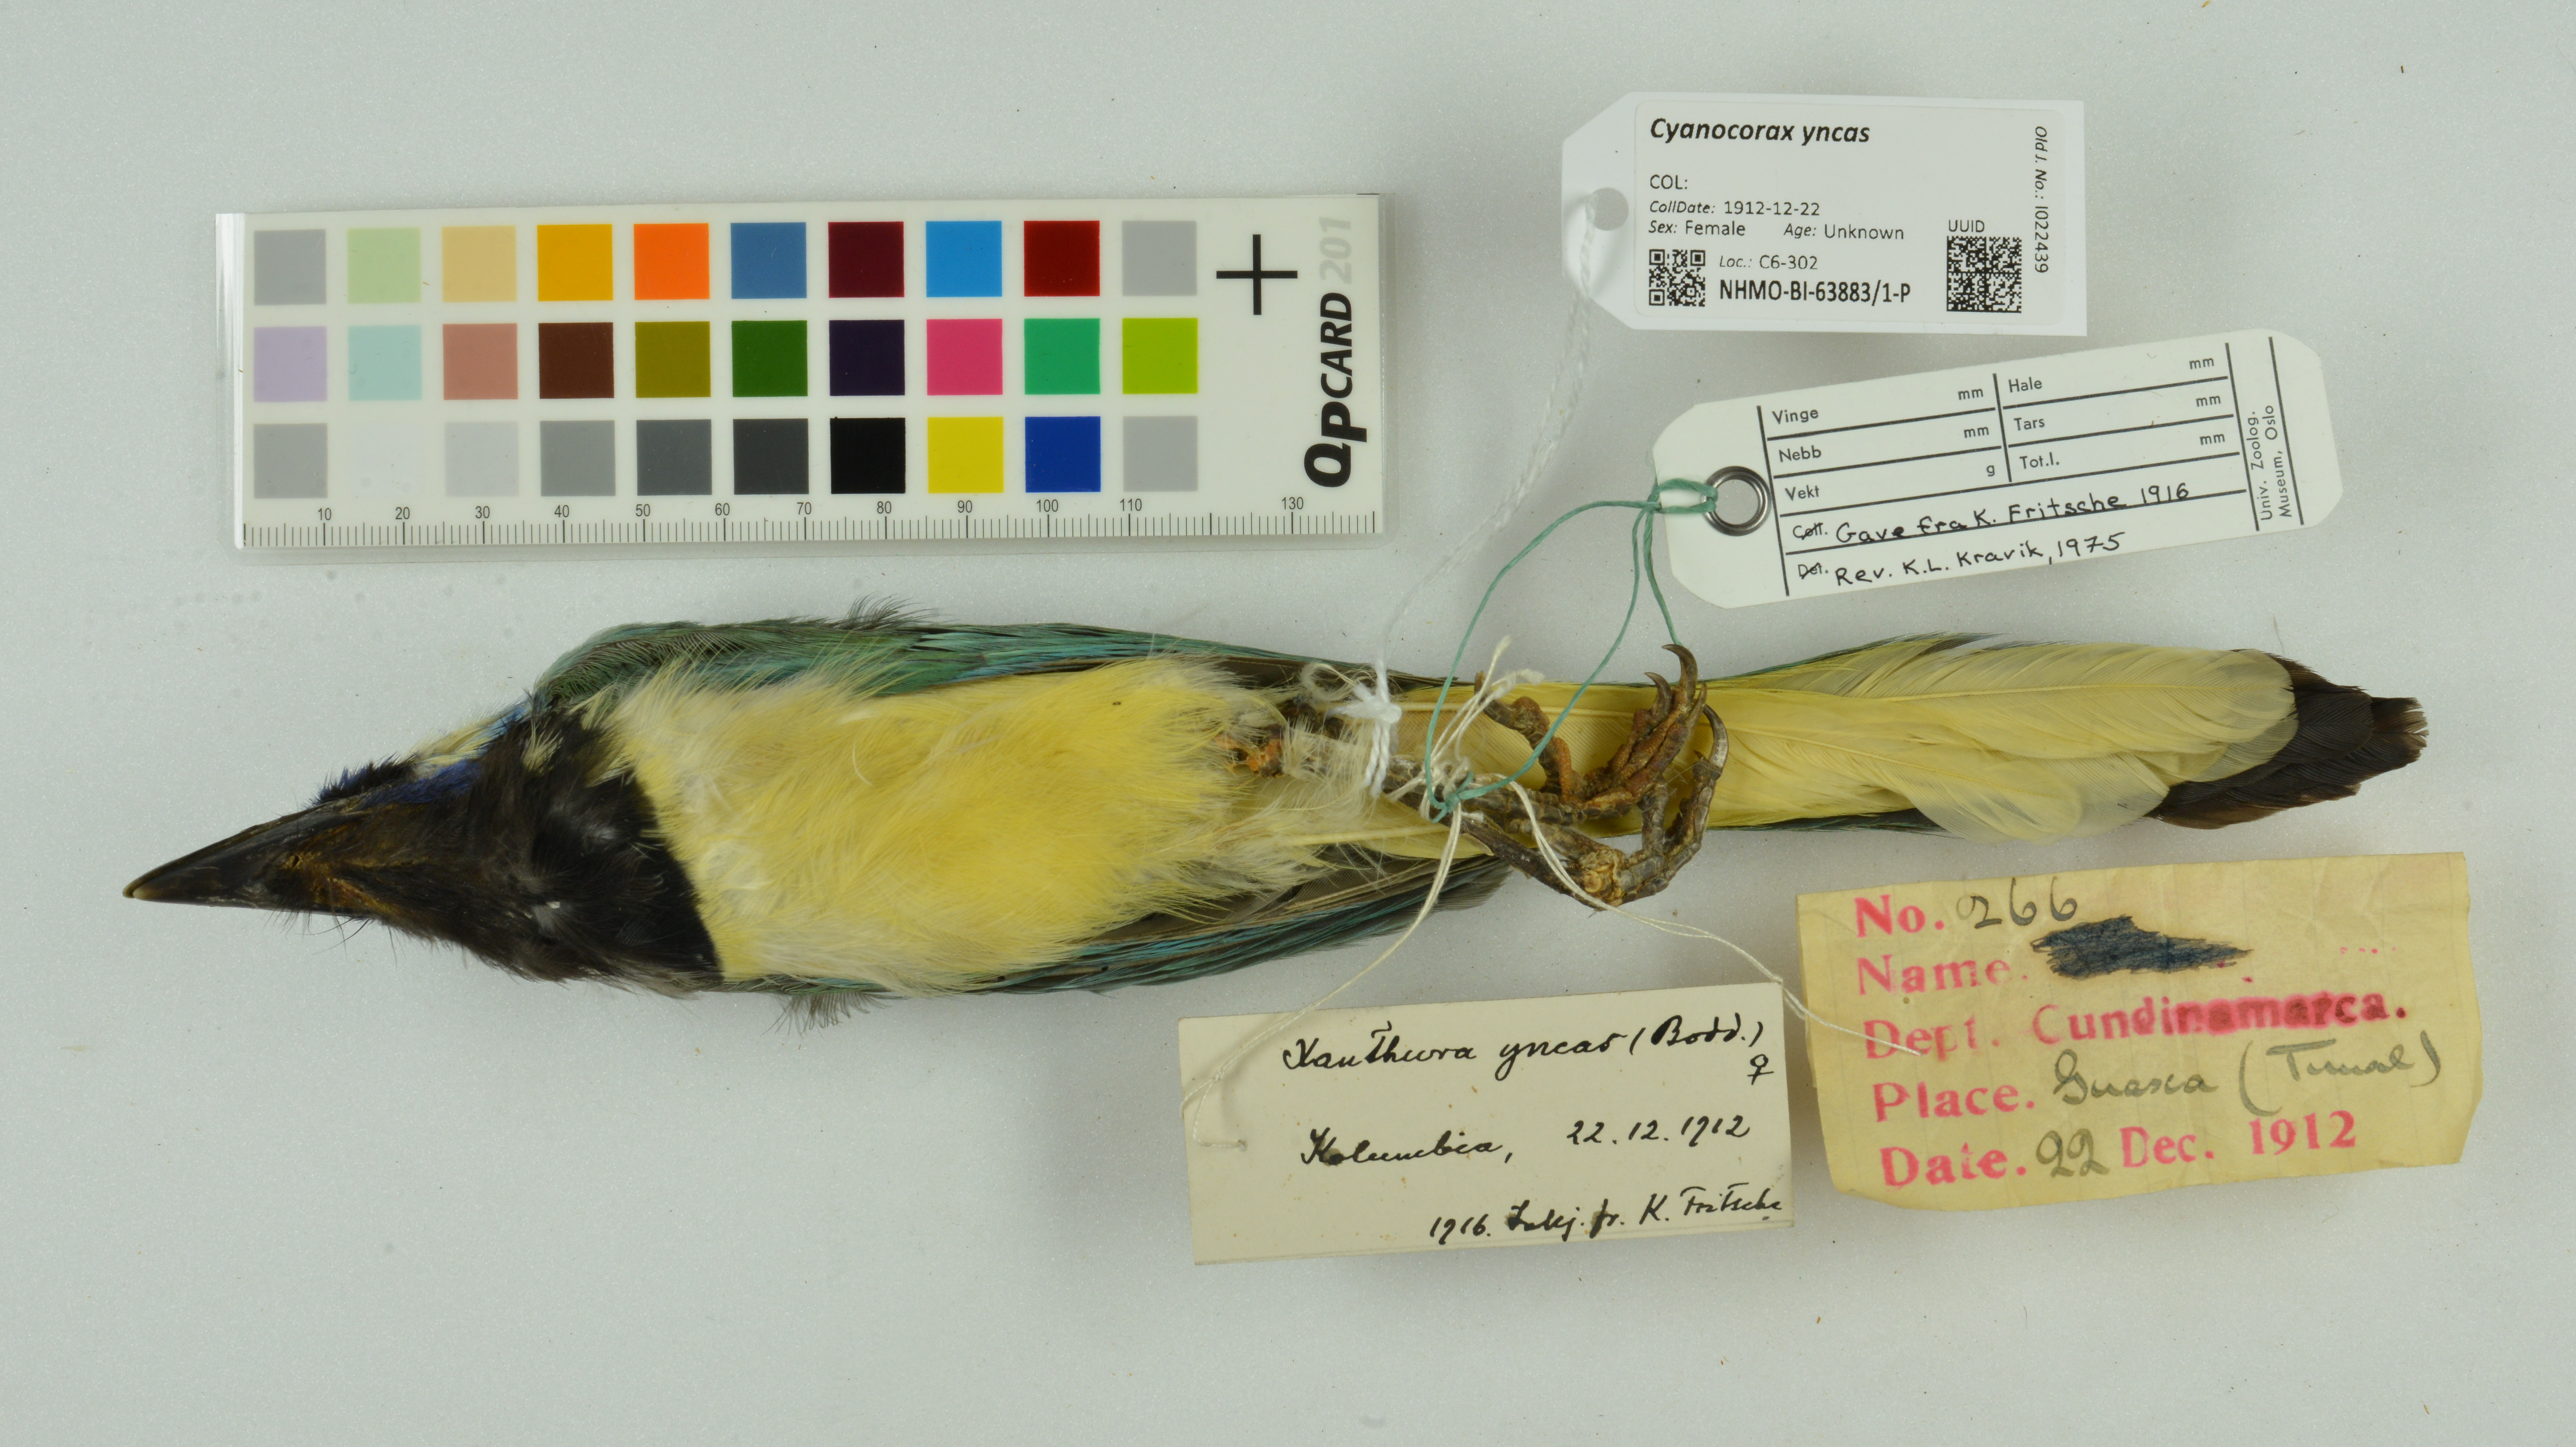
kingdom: Animalia
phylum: Chordata
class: Aves
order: Passeriformes
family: Corvidae
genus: Cyanocorax
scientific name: Cyanocorax yncas
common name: Green jay
